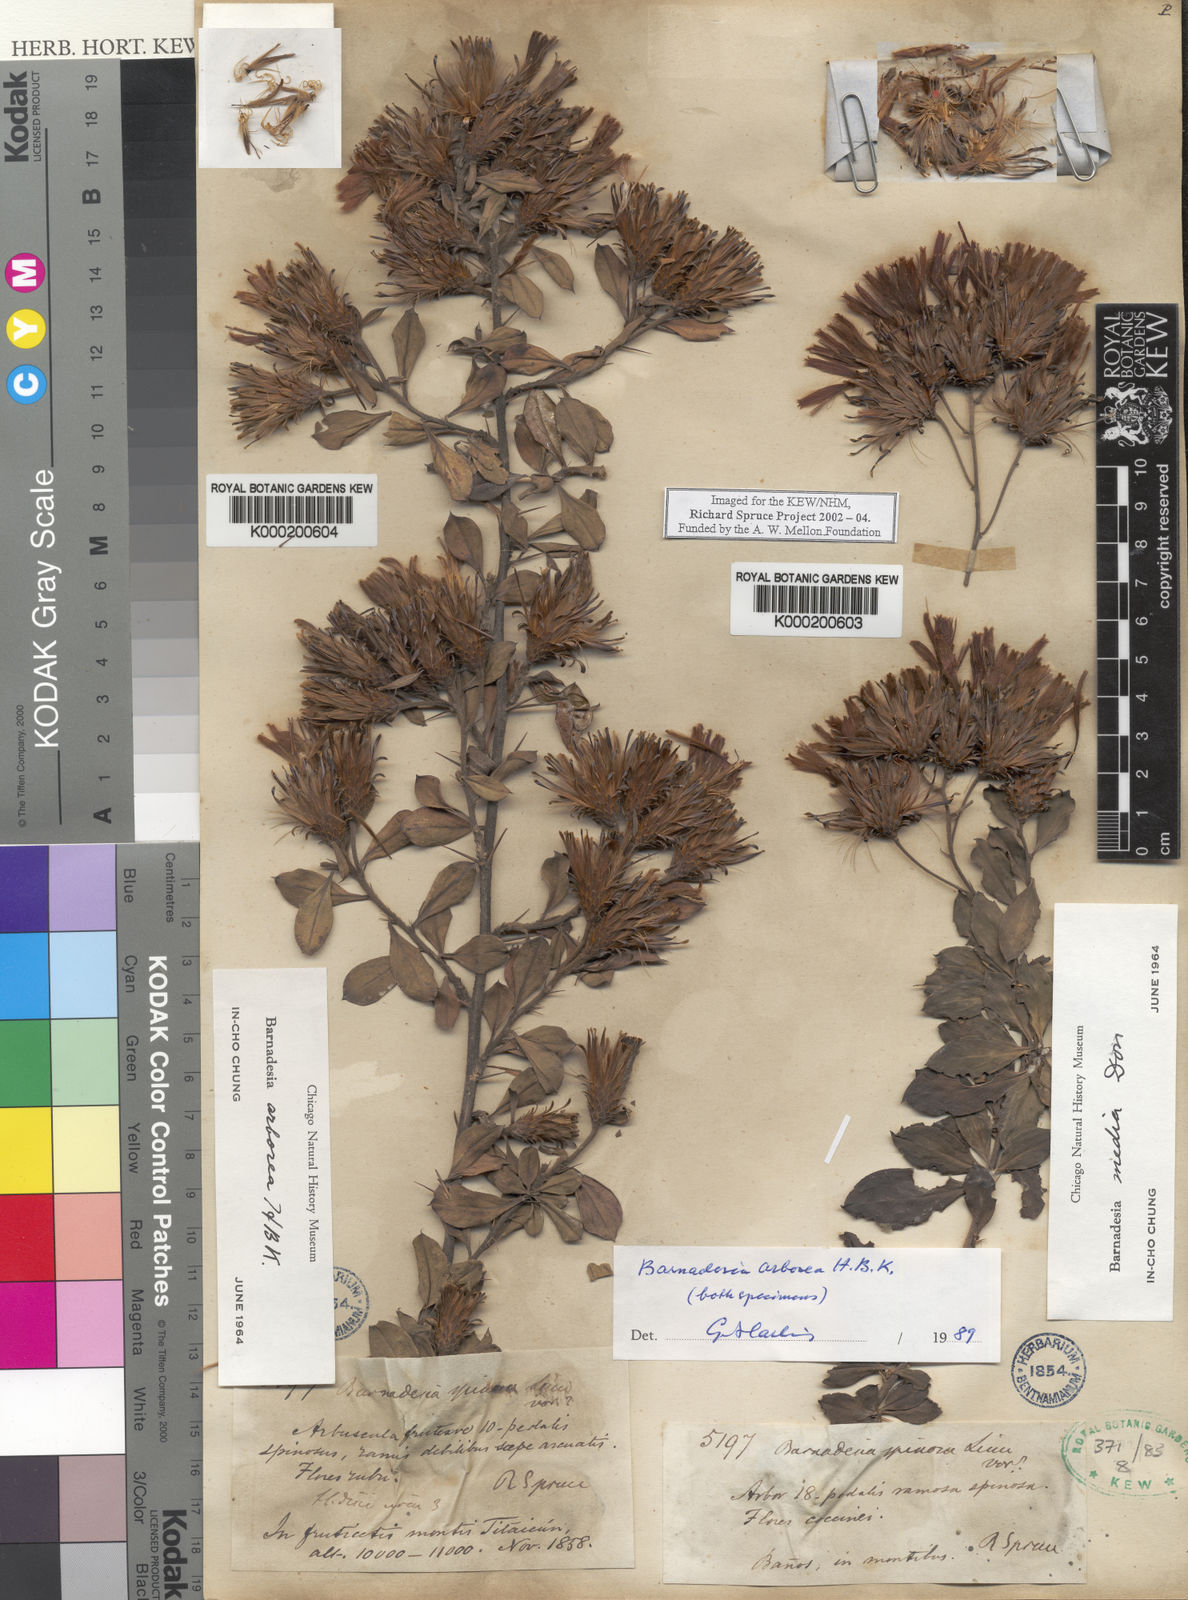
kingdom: Plantae
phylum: Tracheophyta
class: Magnoliopsida
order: Asterales
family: Asteraceae
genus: Barnadesia
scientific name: Barnadesia
